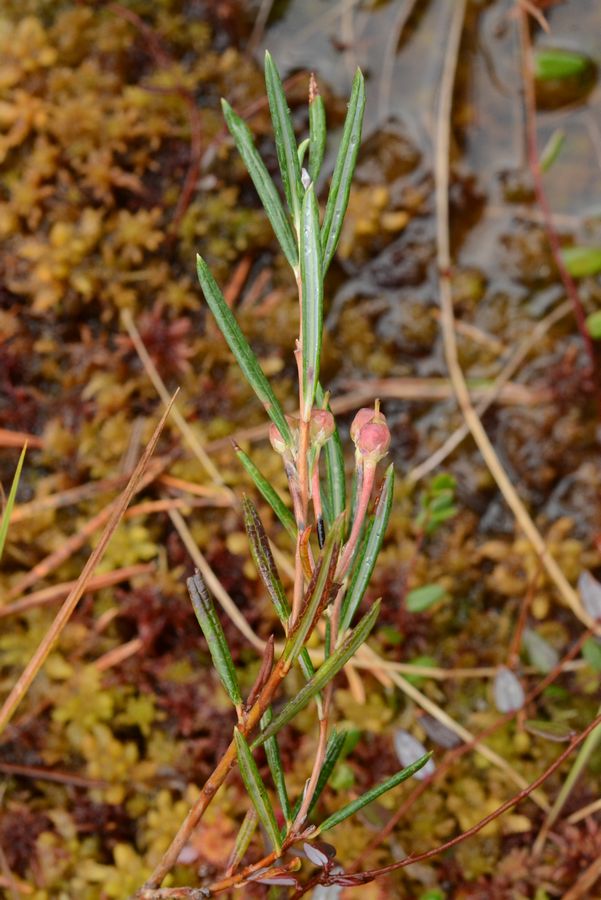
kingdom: Plantae
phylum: Tracheophyta
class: Magnoliopsida
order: Ericales
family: Ericaceae
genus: Andromeda
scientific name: Andromeda polifolia
